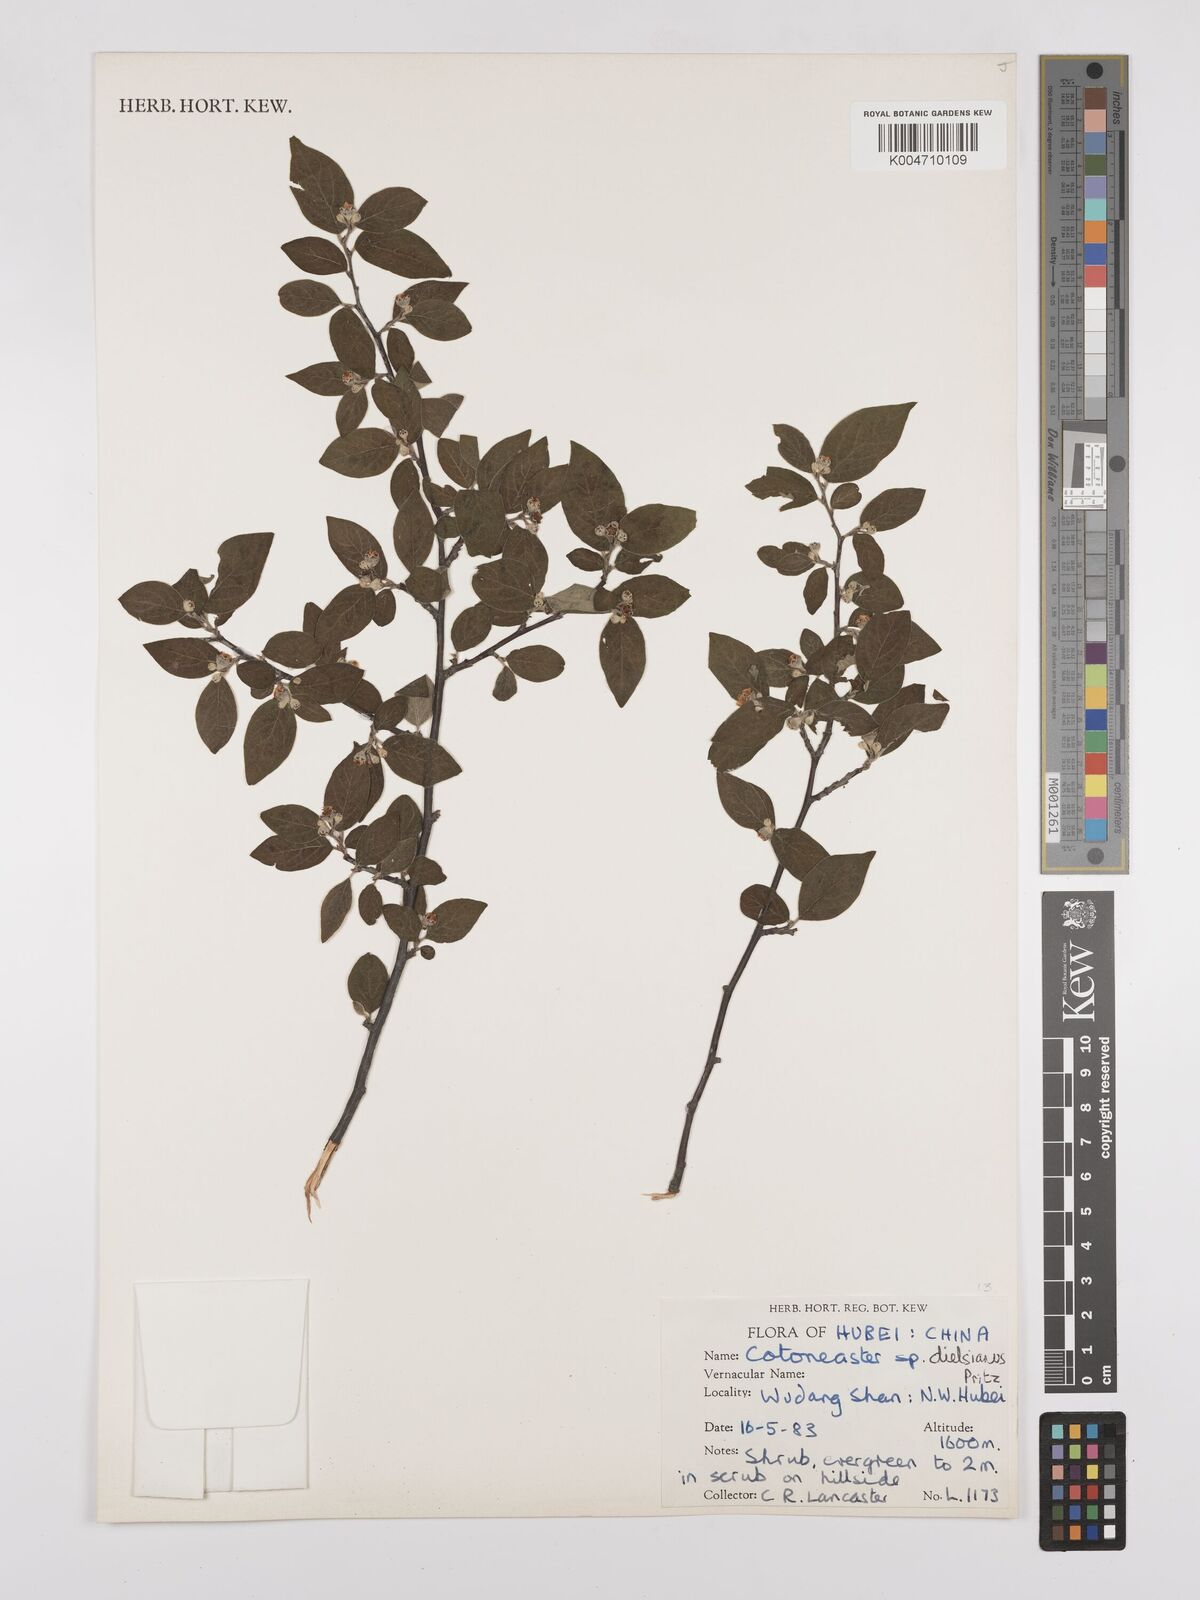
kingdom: Plantae
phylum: Tracheophyta
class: Magnoliopsida
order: Rosales
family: Rosaceae
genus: Cotoneaster
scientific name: Cotoneaster dielsianus
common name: Diels's cotoneaster
